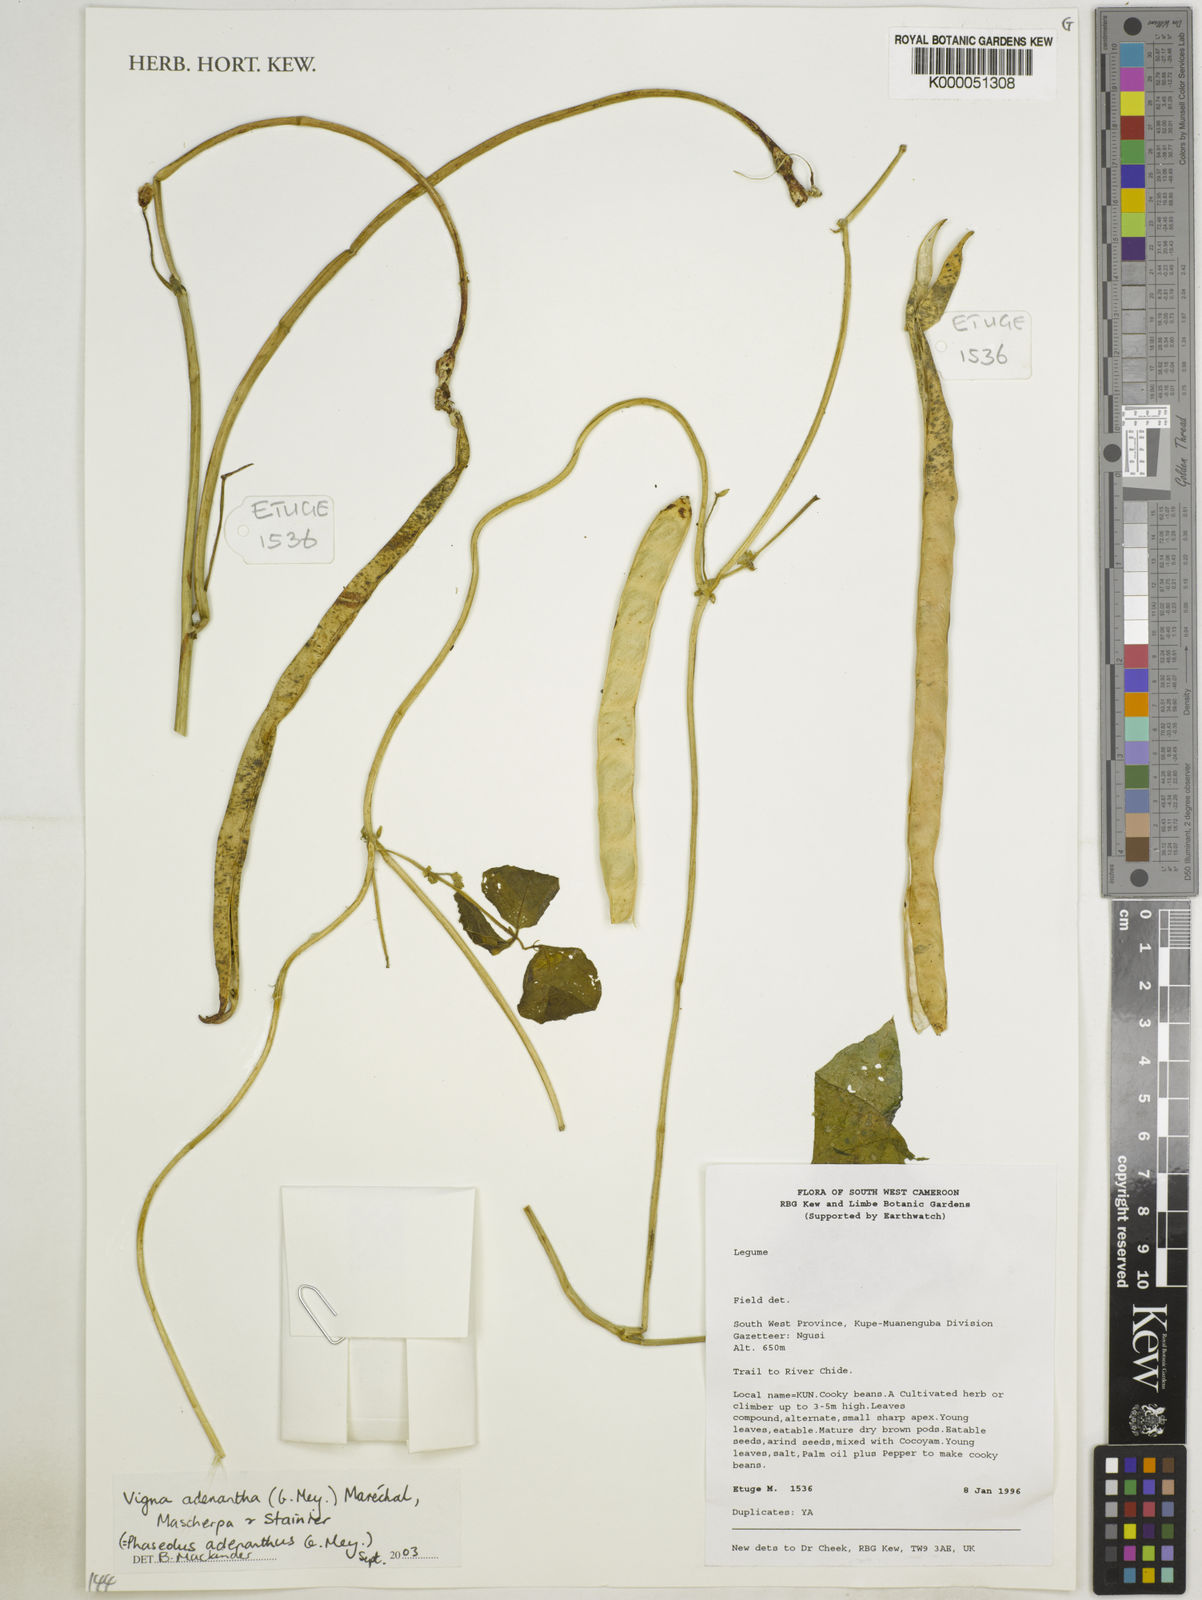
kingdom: Plantae
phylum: Tracheophyta
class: Magnoliopsida
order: Fabales
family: Fabaceae
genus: Vigna
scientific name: Vigna
